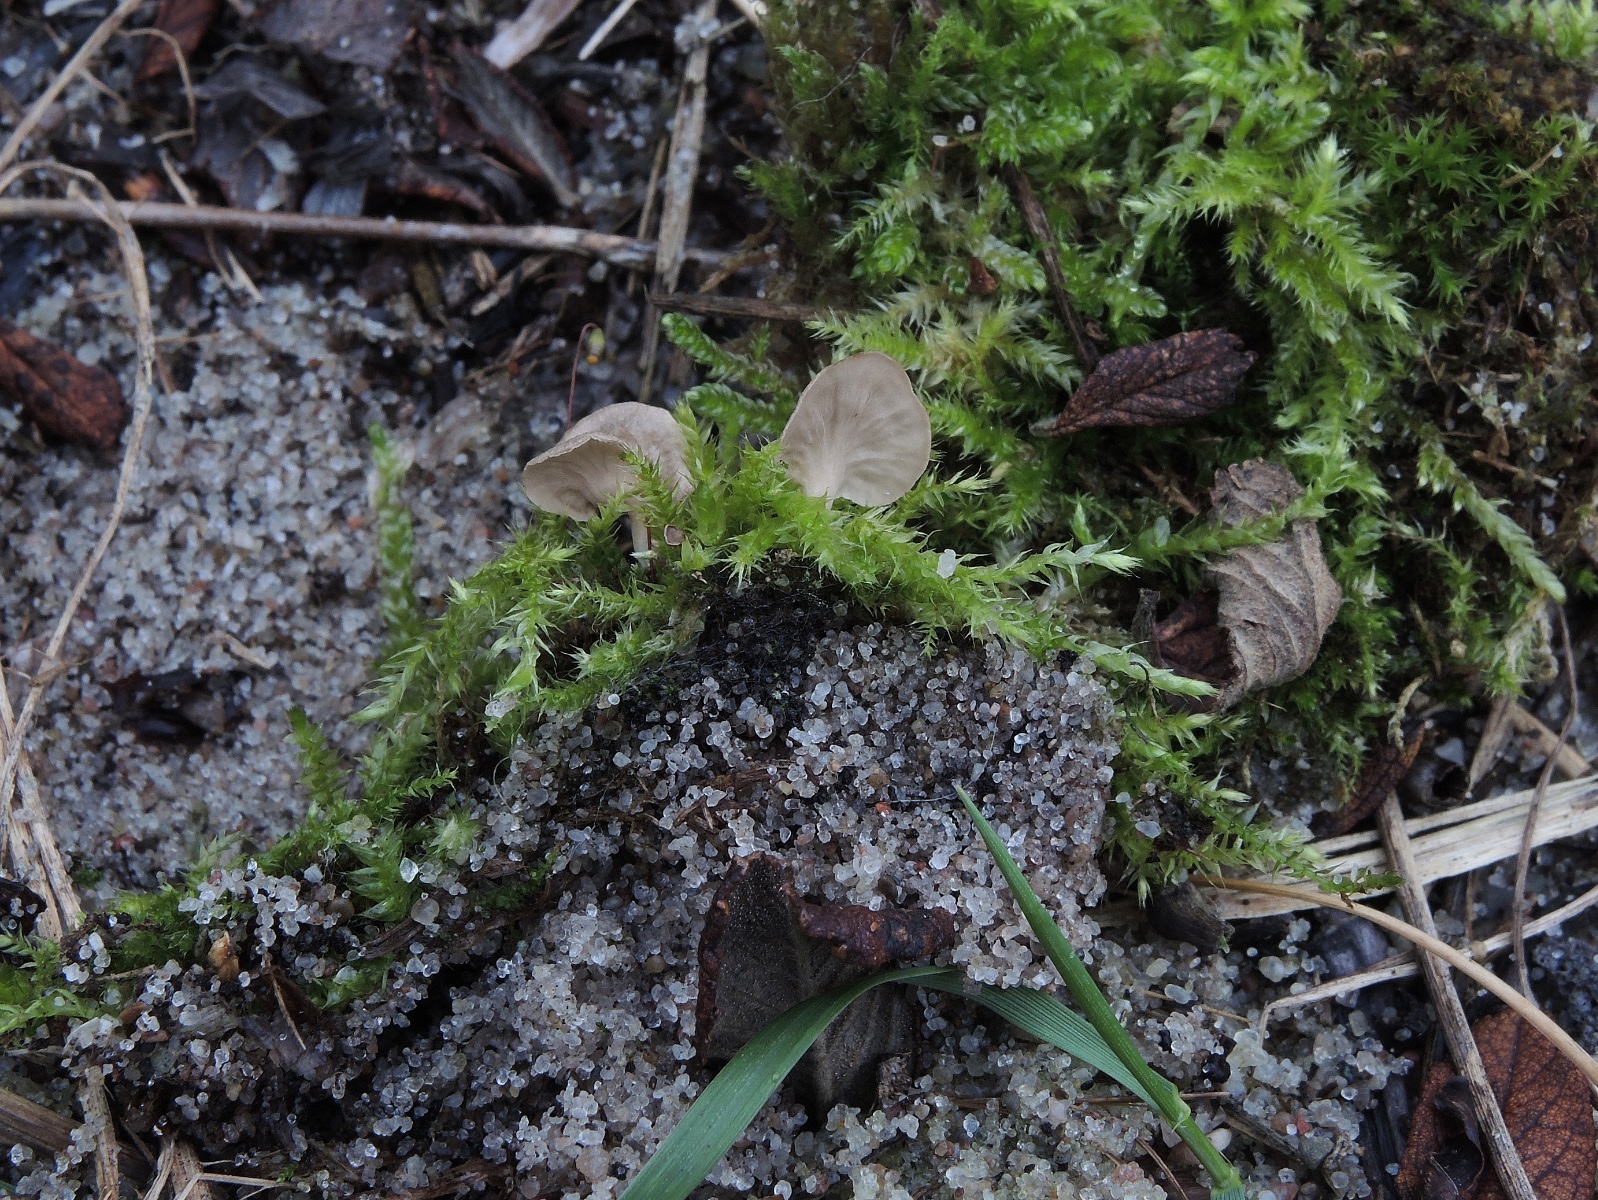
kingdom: Fungi
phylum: Basidiomycota
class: Agaricomycetes
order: Agaricales
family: Hygrophoraceae
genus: Arrhenia
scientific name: Arrhenia spathulata
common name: skæv fontænehat
